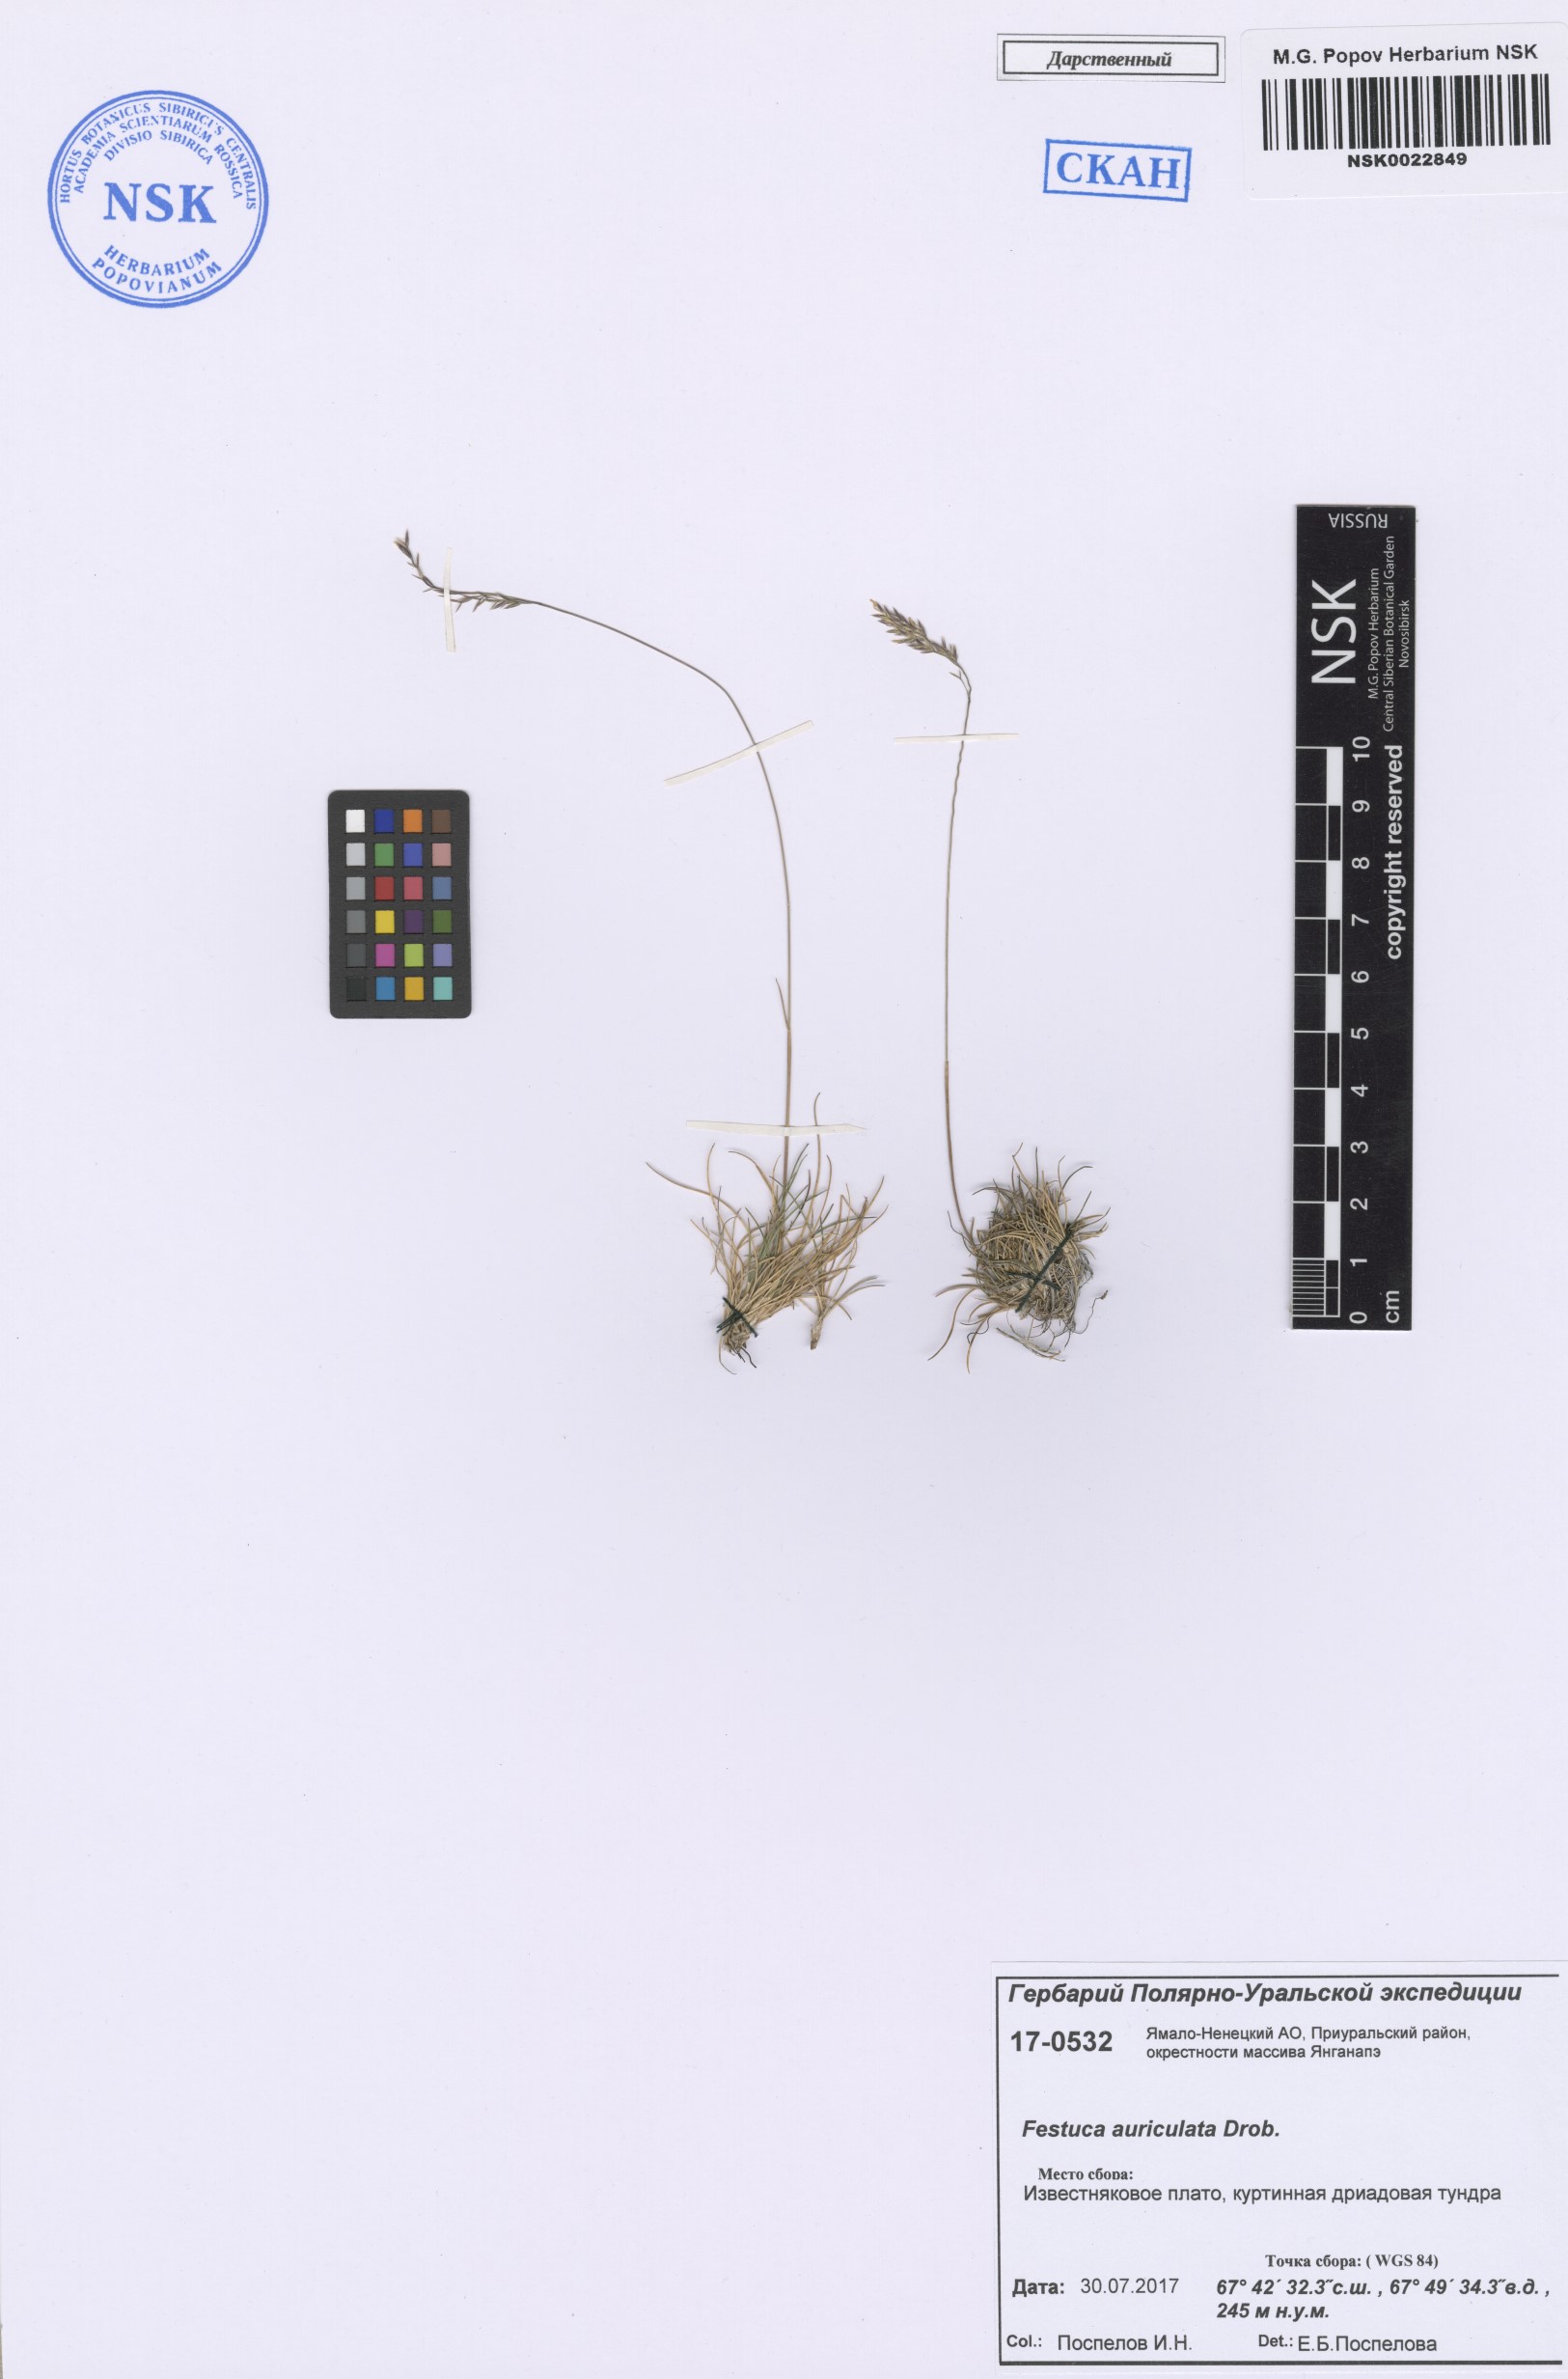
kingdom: Plantae
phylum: Tracheophyta
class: Liliopsida
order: Poales
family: Poaceae
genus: Festuca
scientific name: Festuca auriculata
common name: Eared fescue
